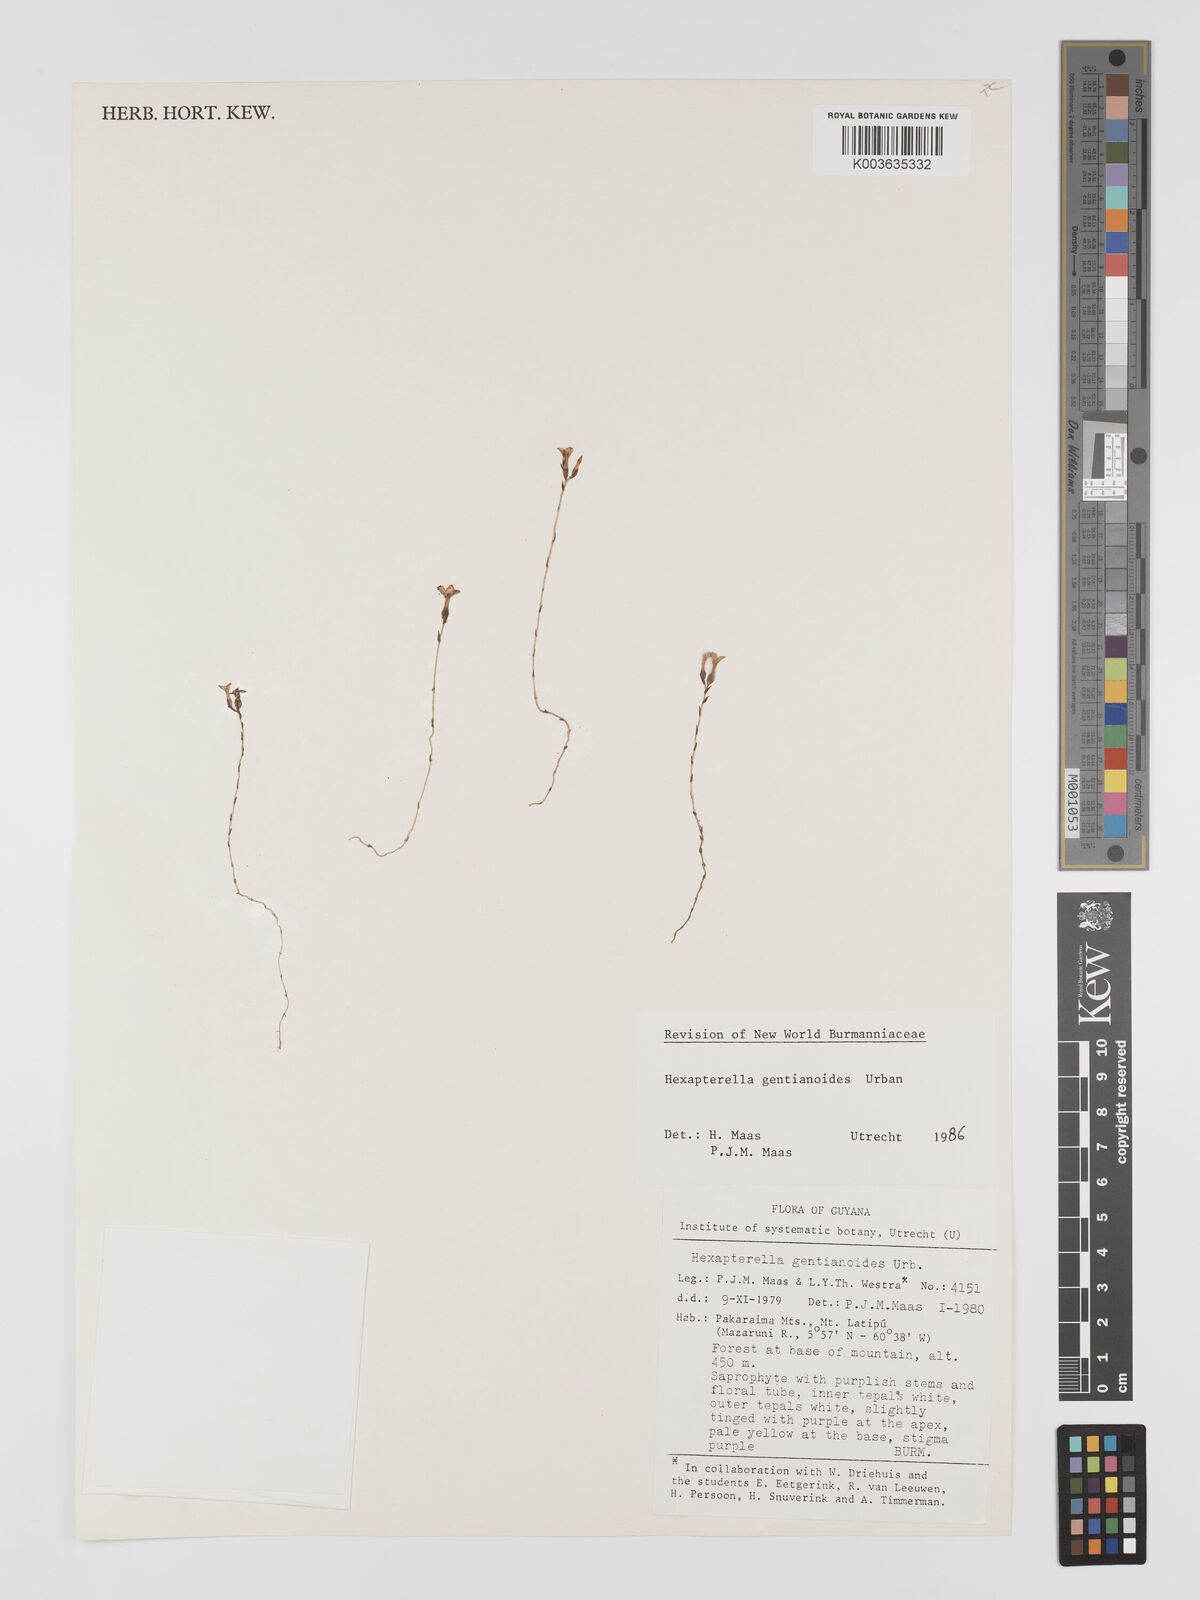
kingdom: Plantae
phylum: Tracheophyta
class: Liliopsida
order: Dioscoreales
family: Burmanniaceae
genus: Hexapterella
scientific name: Hexapterella gentianoides
